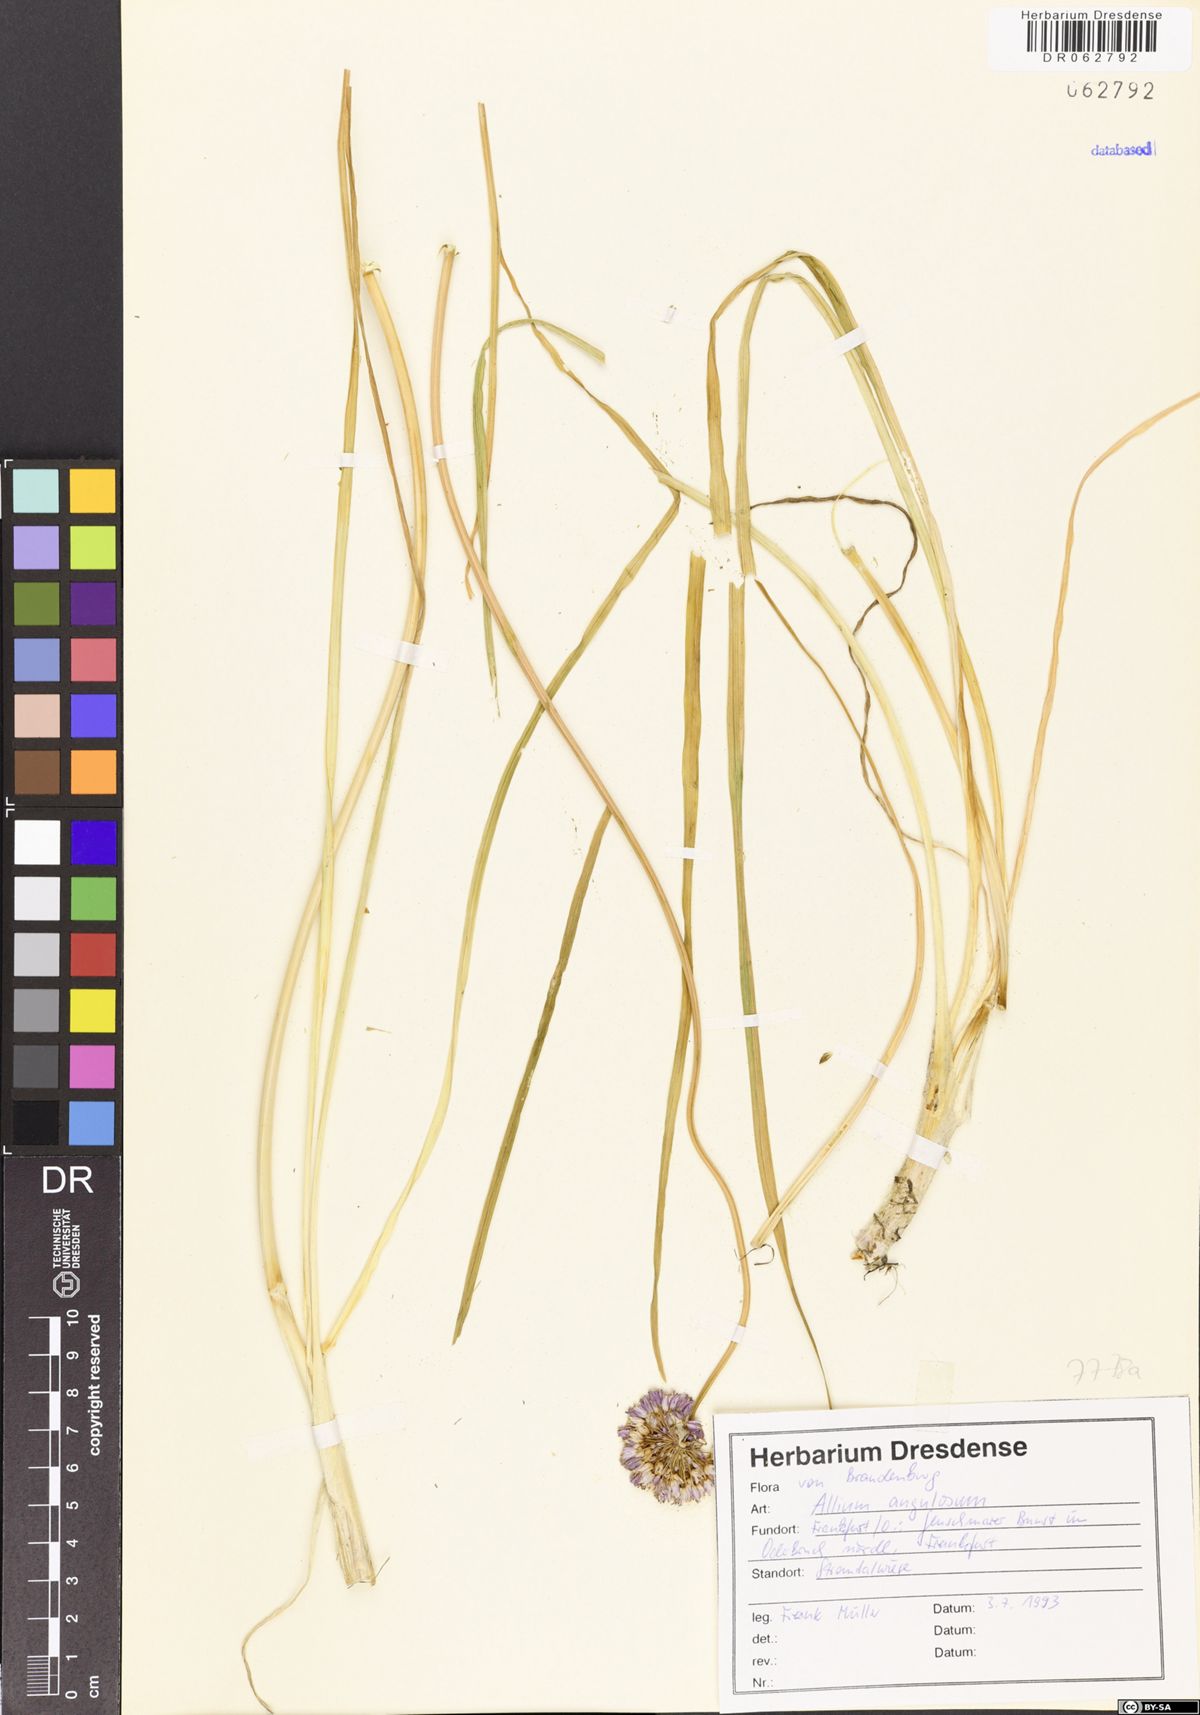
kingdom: Plantae
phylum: Tracheophyta
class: Liliopsida
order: Asparagales
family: Amaryllidaceae
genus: Allium
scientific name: Allium angulosum
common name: Mouse garlic
